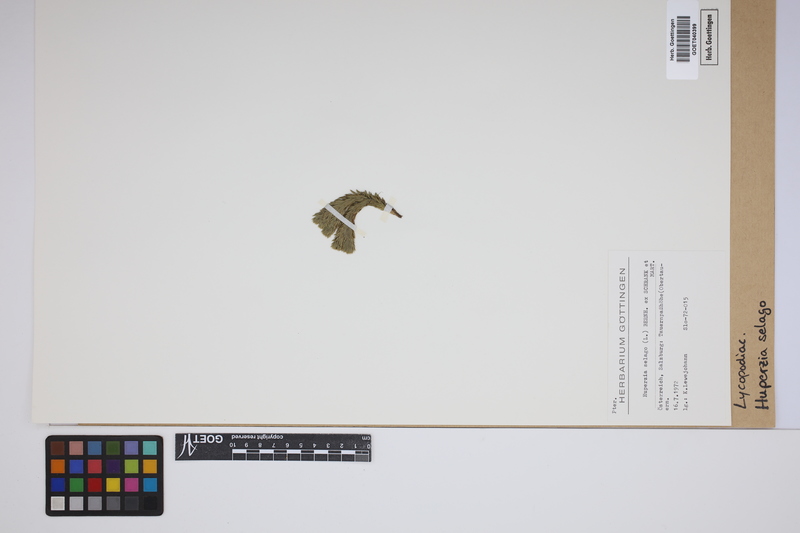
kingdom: Plantae
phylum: Tracheophyta
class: Lycopodiopsida
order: Lycopodiales
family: Lycopodiaceae
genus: Huperzia
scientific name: Huperzia selago
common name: Northern firmoss
